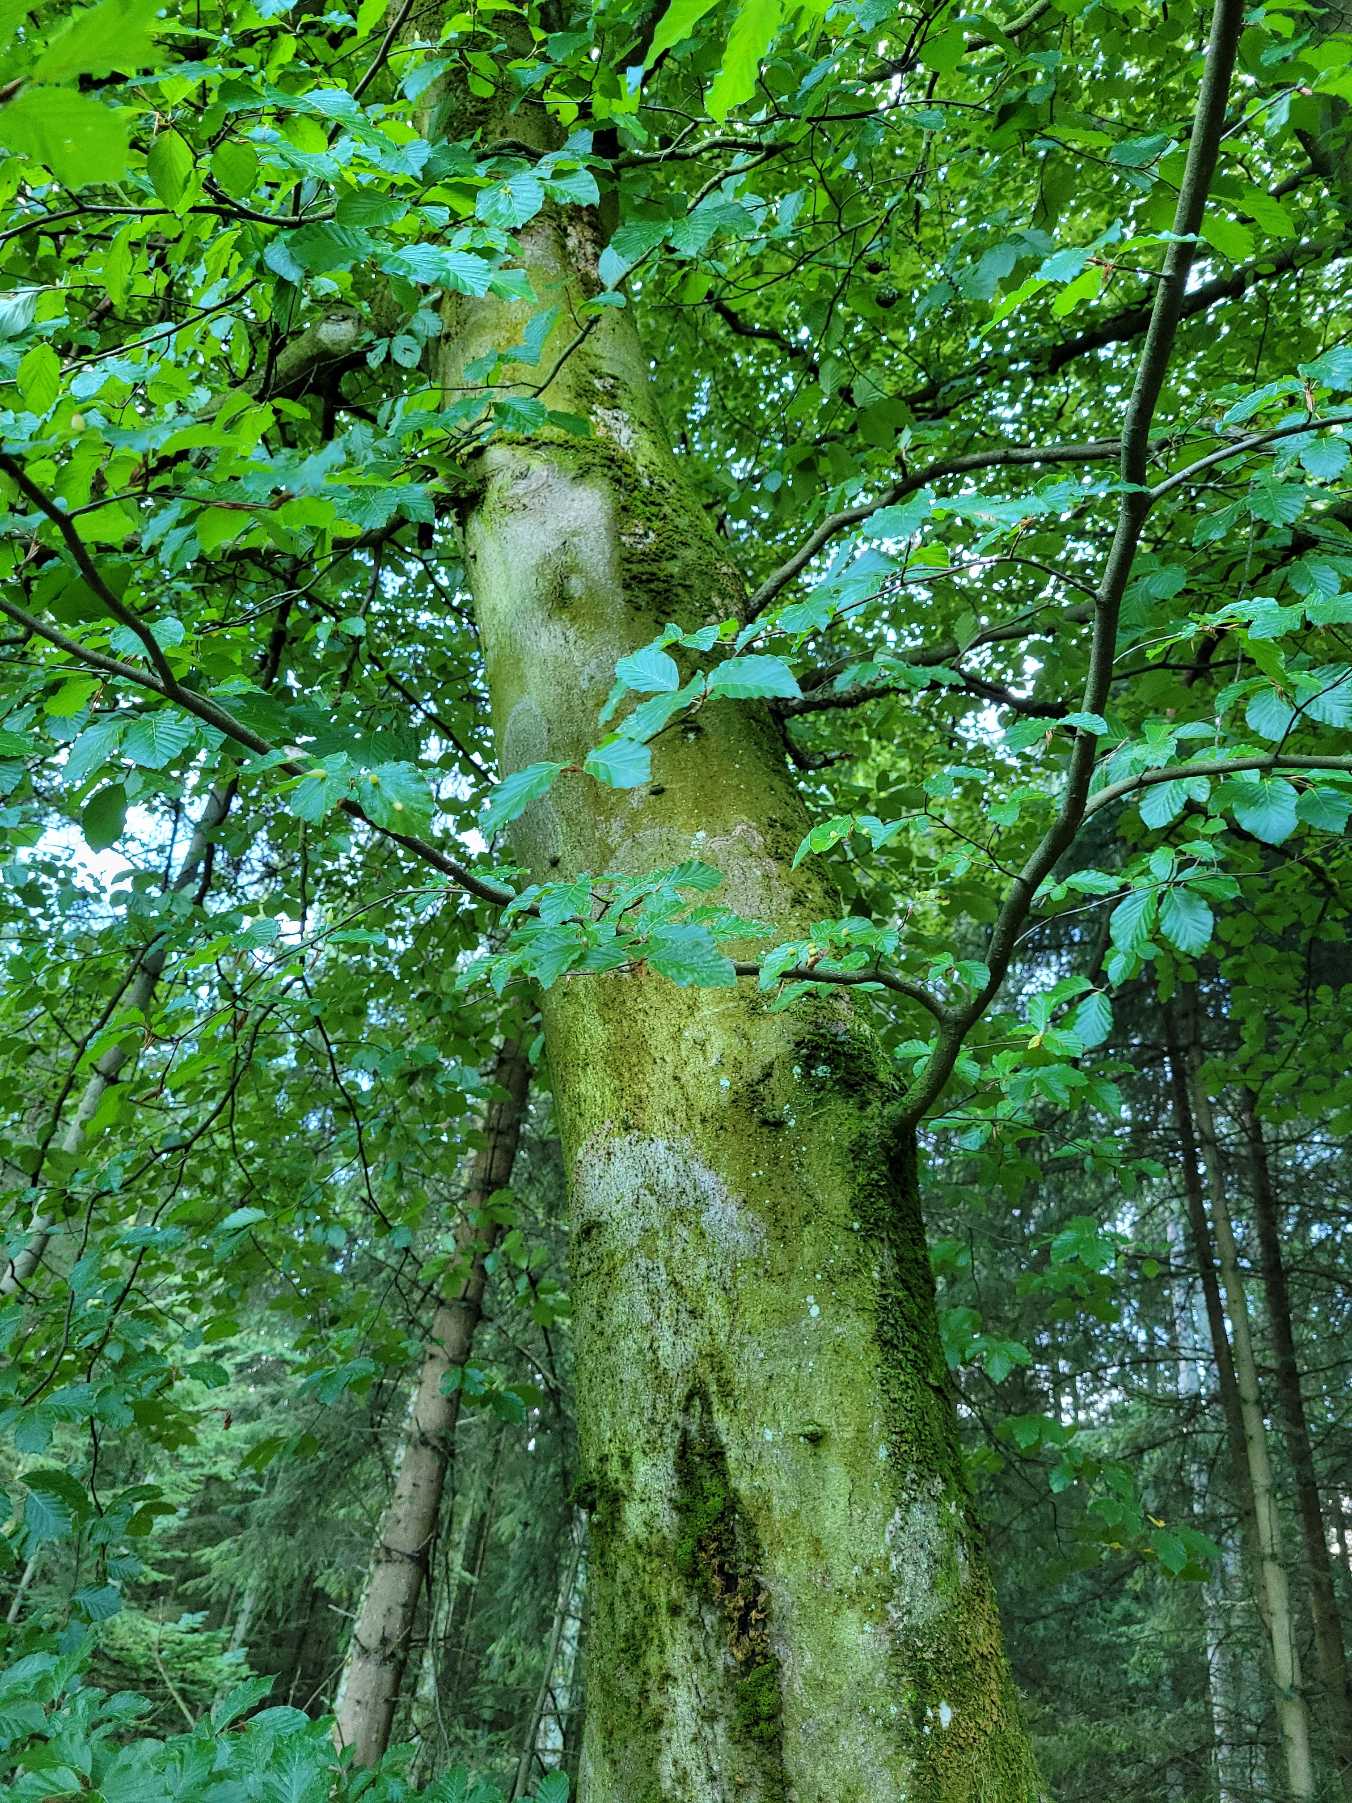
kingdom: Plantae
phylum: Tracheophyta
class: Magnoliopsida
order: Fagales
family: Fagaceae
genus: Fagus
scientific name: Fagus sylvatica
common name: Bøg
